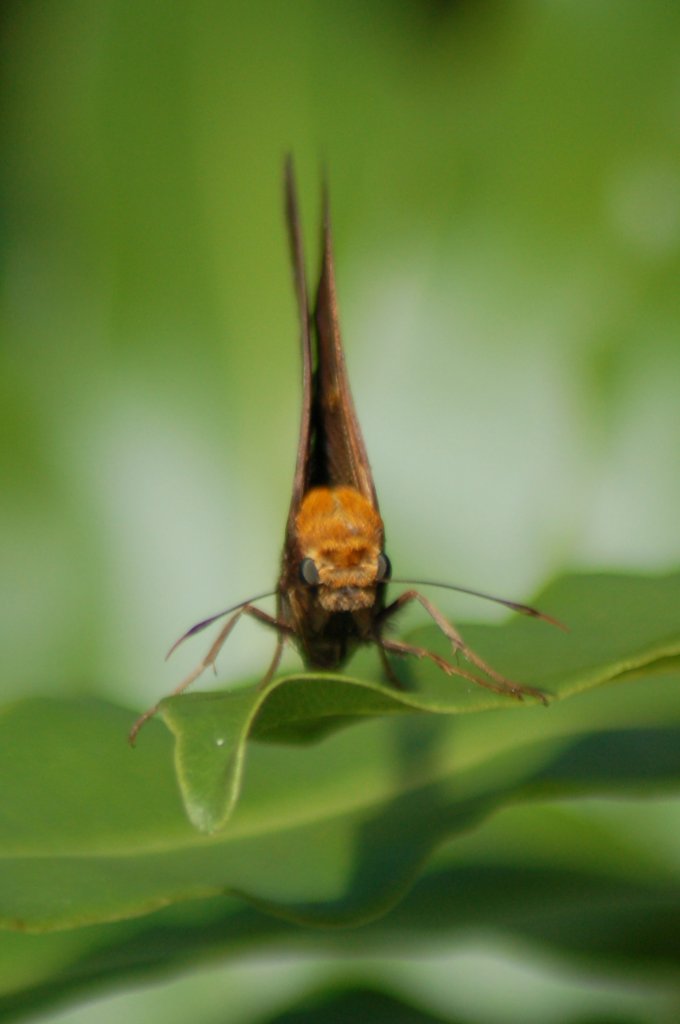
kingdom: Animalia
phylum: Arthropoda
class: Insecta
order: Lepidoptera
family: Hesperiidae
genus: Epargyreus
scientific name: Epargyreus aspina
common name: Spineless Silverdrop
